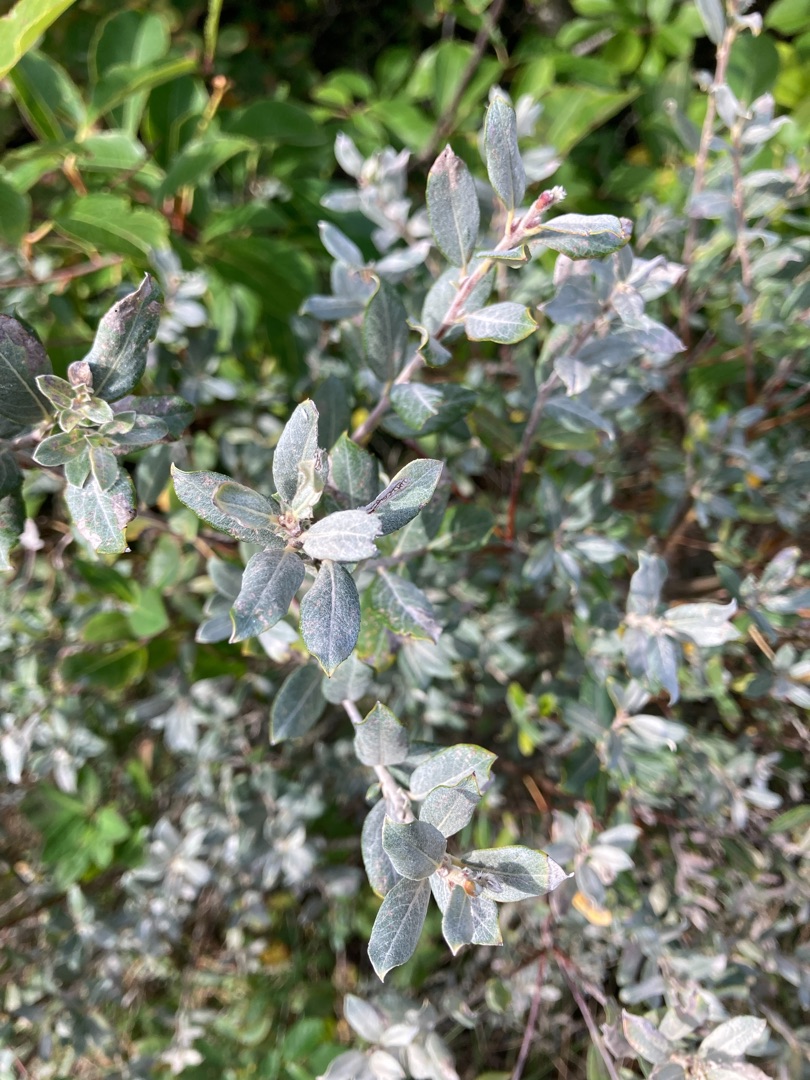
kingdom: Plantae
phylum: Tracheophyta
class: Magnoliopsida
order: Malpighiales
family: Salicaceae
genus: Salix
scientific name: Salix repens
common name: Gråris
